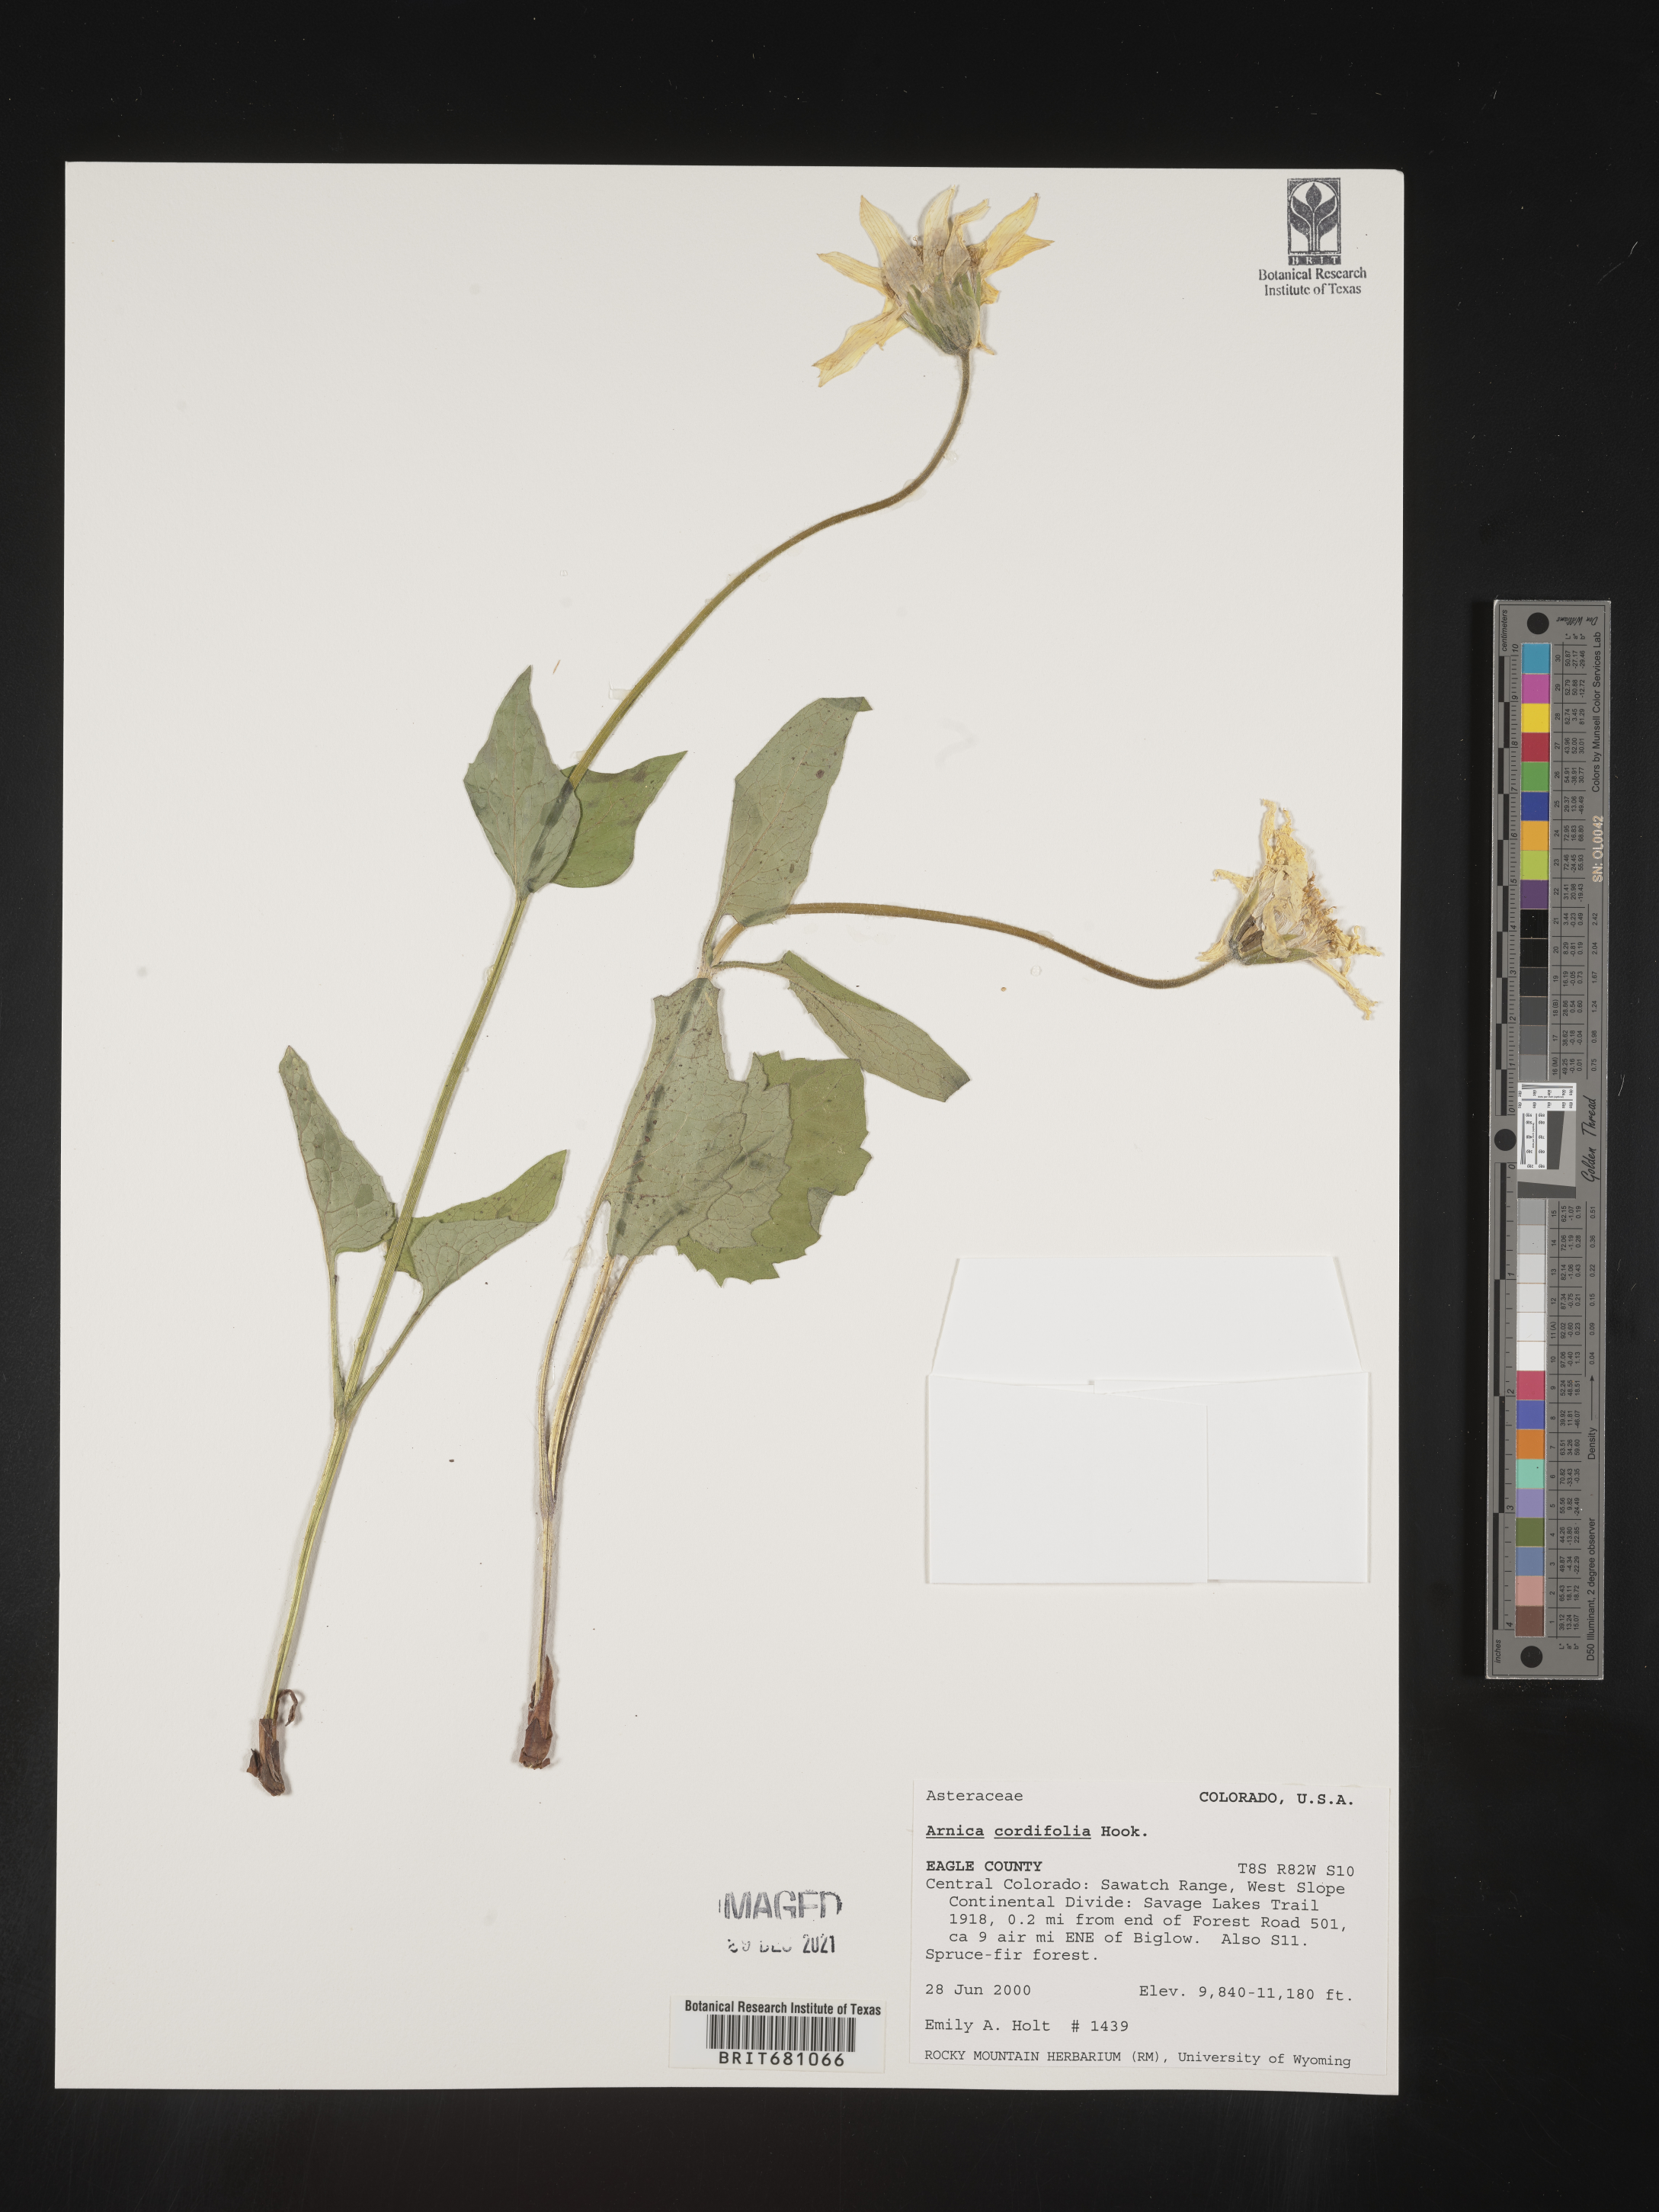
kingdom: Plantae
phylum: Tracheophyta
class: Magnoliopsida
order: Asterales
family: Asteraceae
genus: Arnica
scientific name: Arnica cordifolia
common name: Heart-leaf arnica
